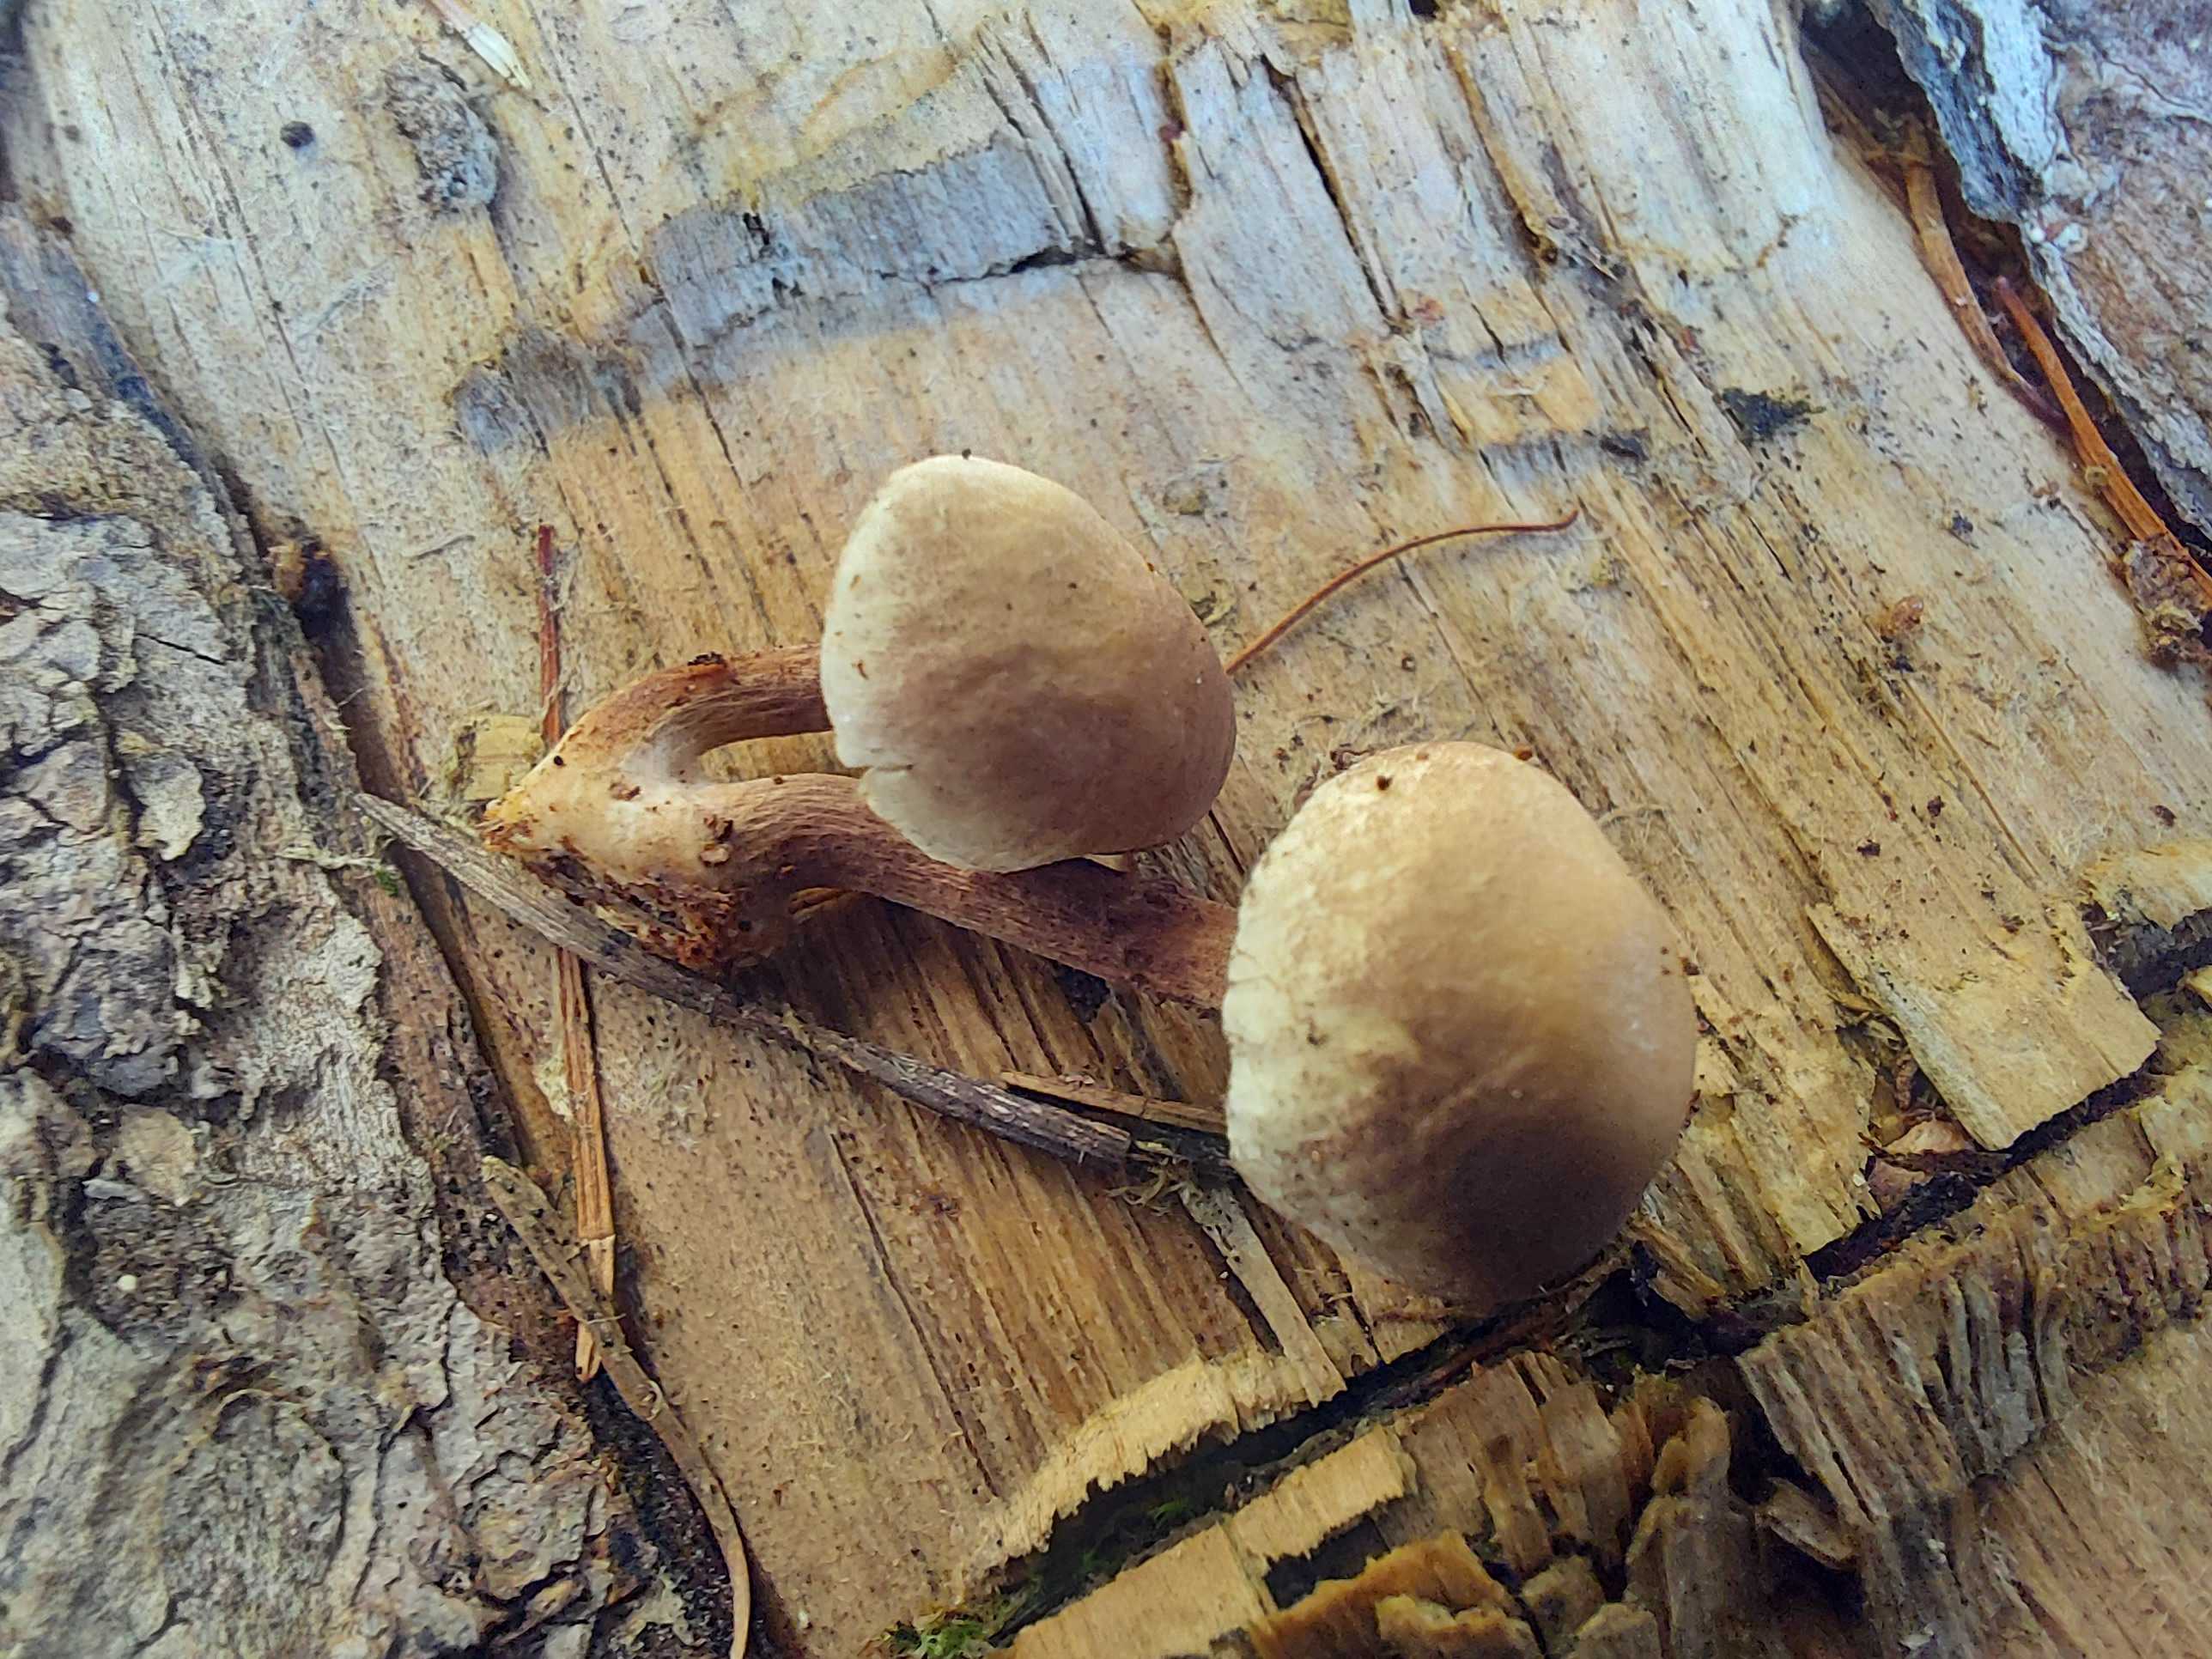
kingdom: Fungi
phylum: Basidiomycota
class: Agaricomycetes
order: Agaricales
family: Strophariaceae
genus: Hypholoma
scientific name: Hypholoma capnoides
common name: gran-svovlhat
